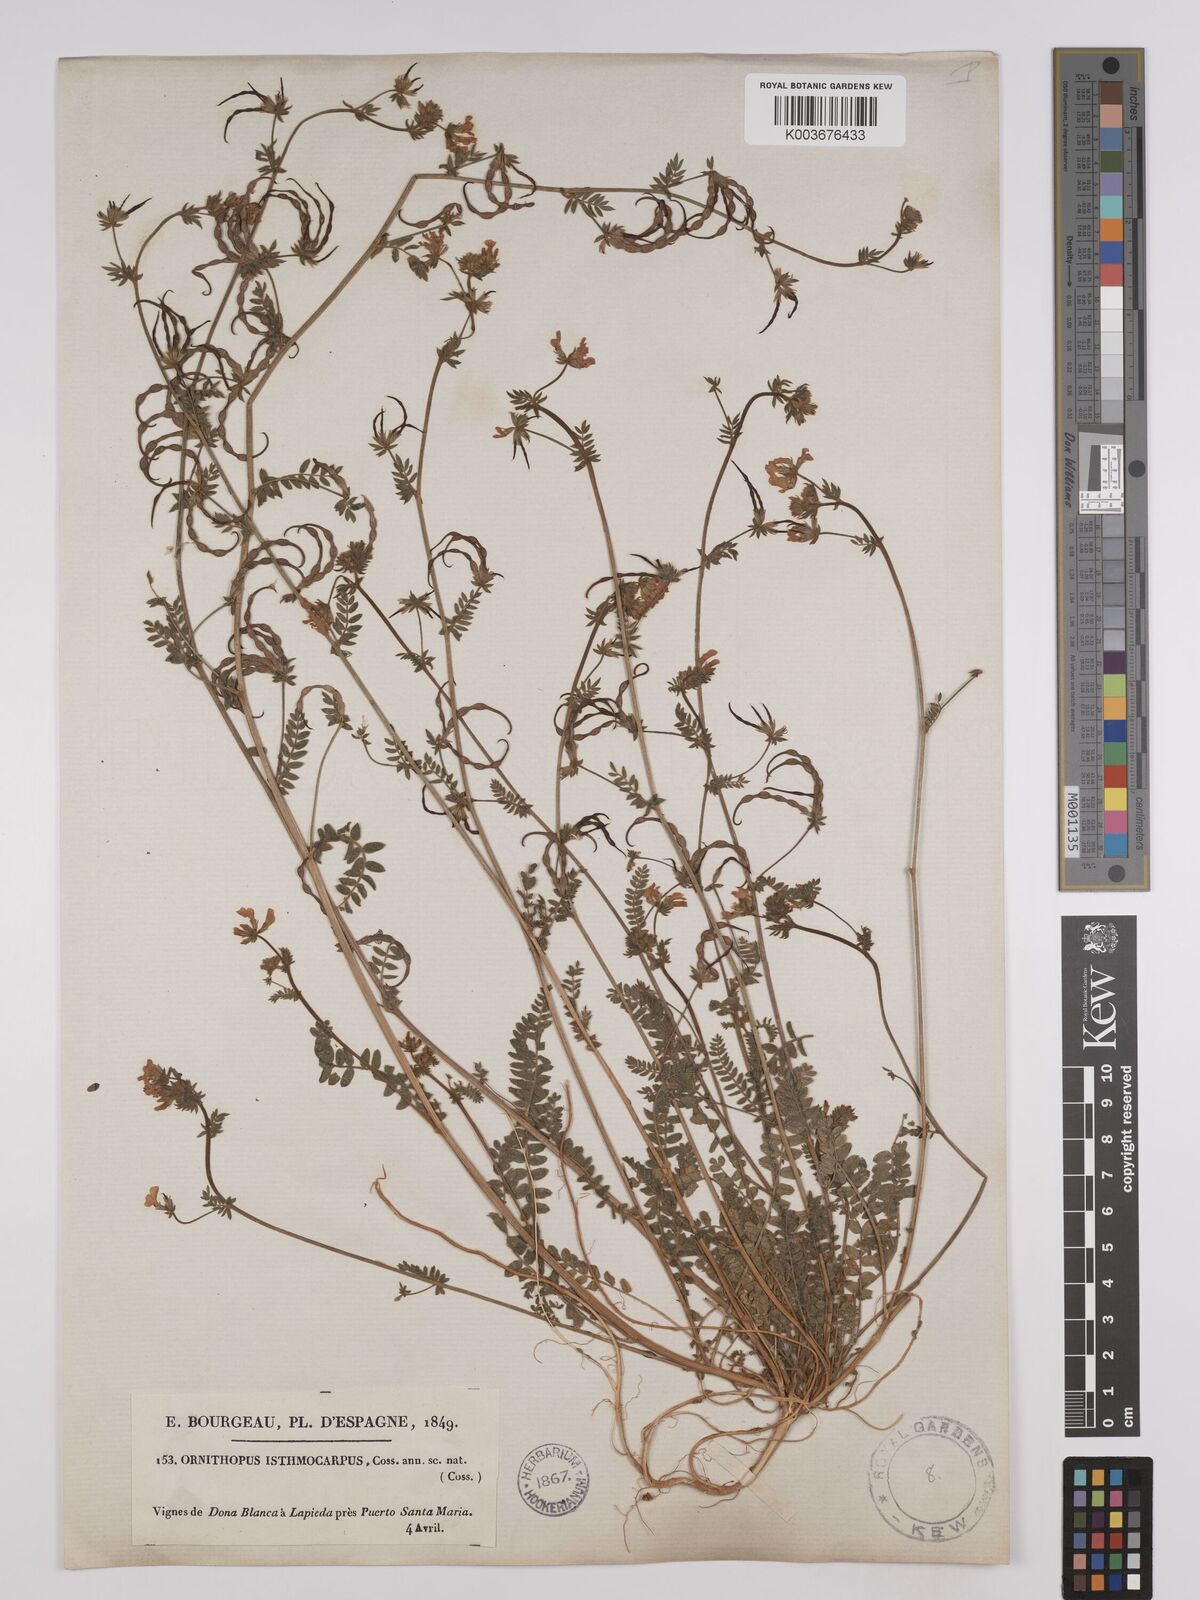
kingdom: Plantae
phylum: Tracheophyta
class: Magnoliopsida
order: Fabales
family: Fabaceae
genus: Ornithopus
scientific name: Ornithopus sativus
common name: Serradella
